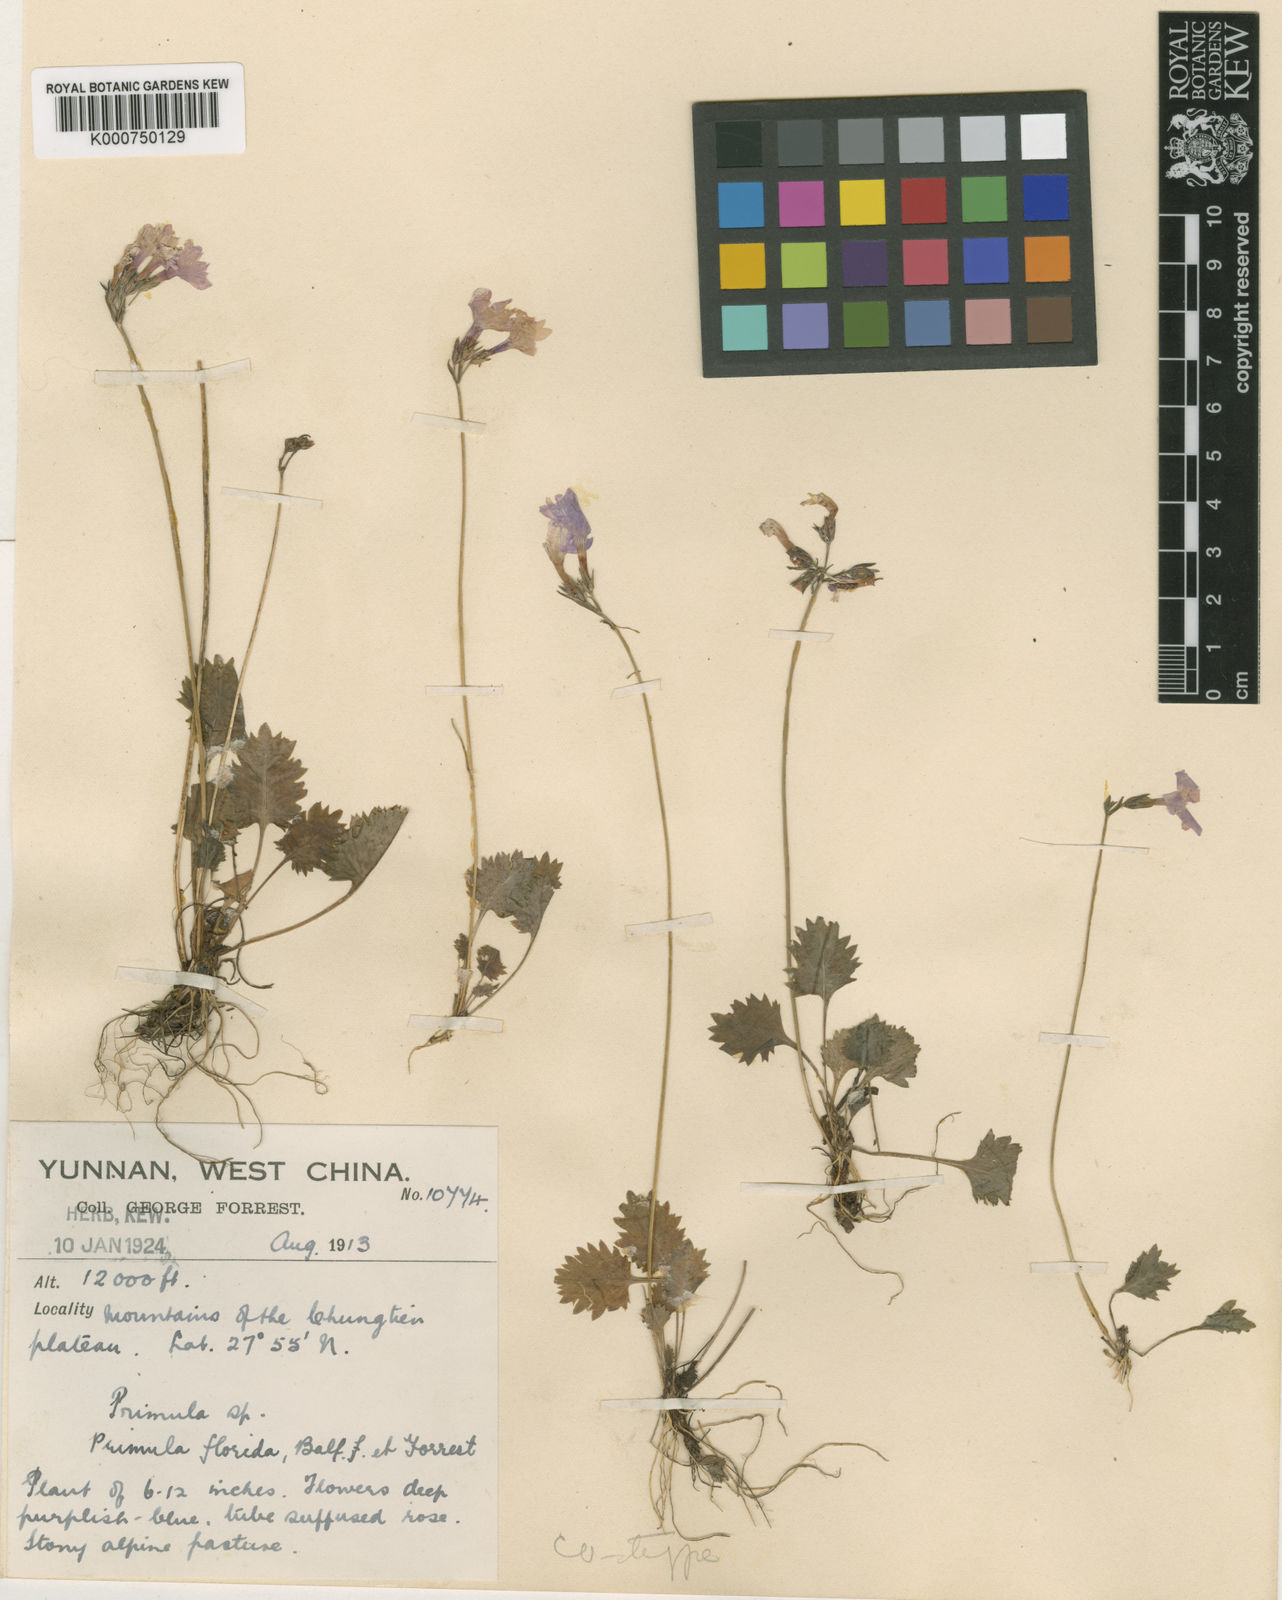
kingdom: Plantae
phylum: Tracheophyta
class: Magnoliopsida
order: Ericales
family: Primulaceae
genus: Primula
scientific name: Primula blinii
